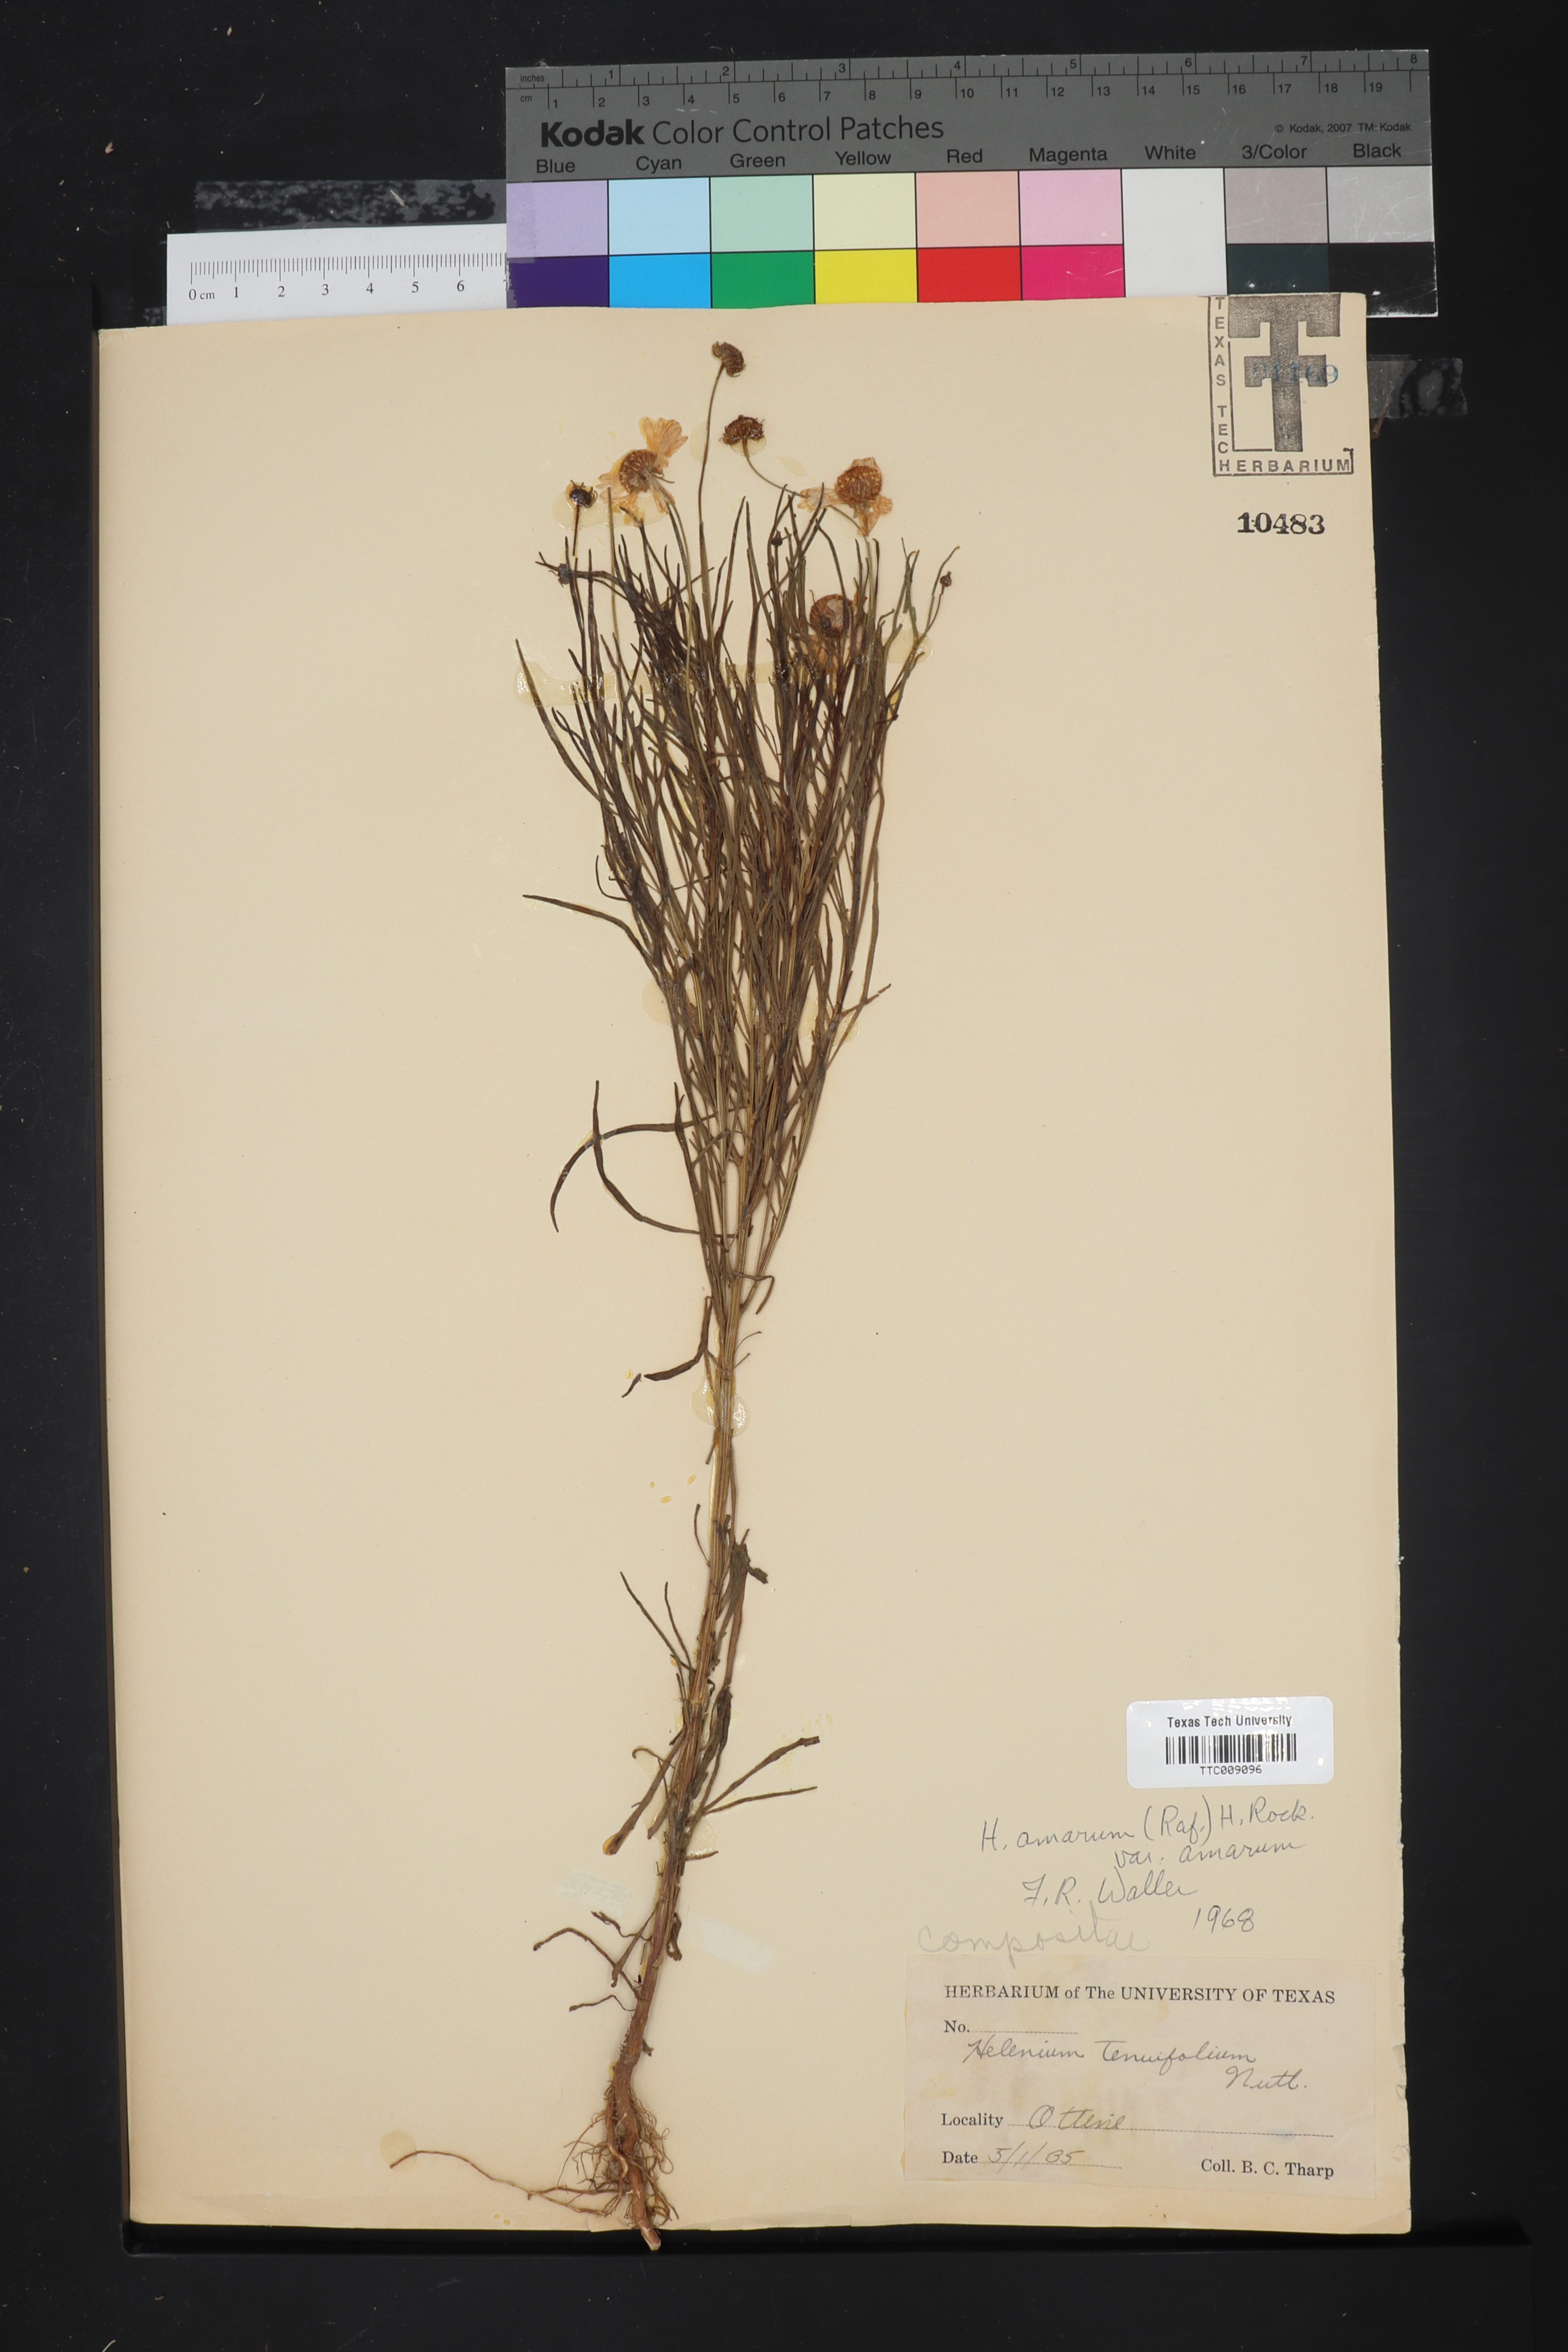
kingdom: Plantae
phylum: Tracheophyta
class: Magnoliopsida
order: Asterales
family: Asteraceae
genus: Helenium
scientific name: Helenium amarum
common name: Bitter sneezeweed
